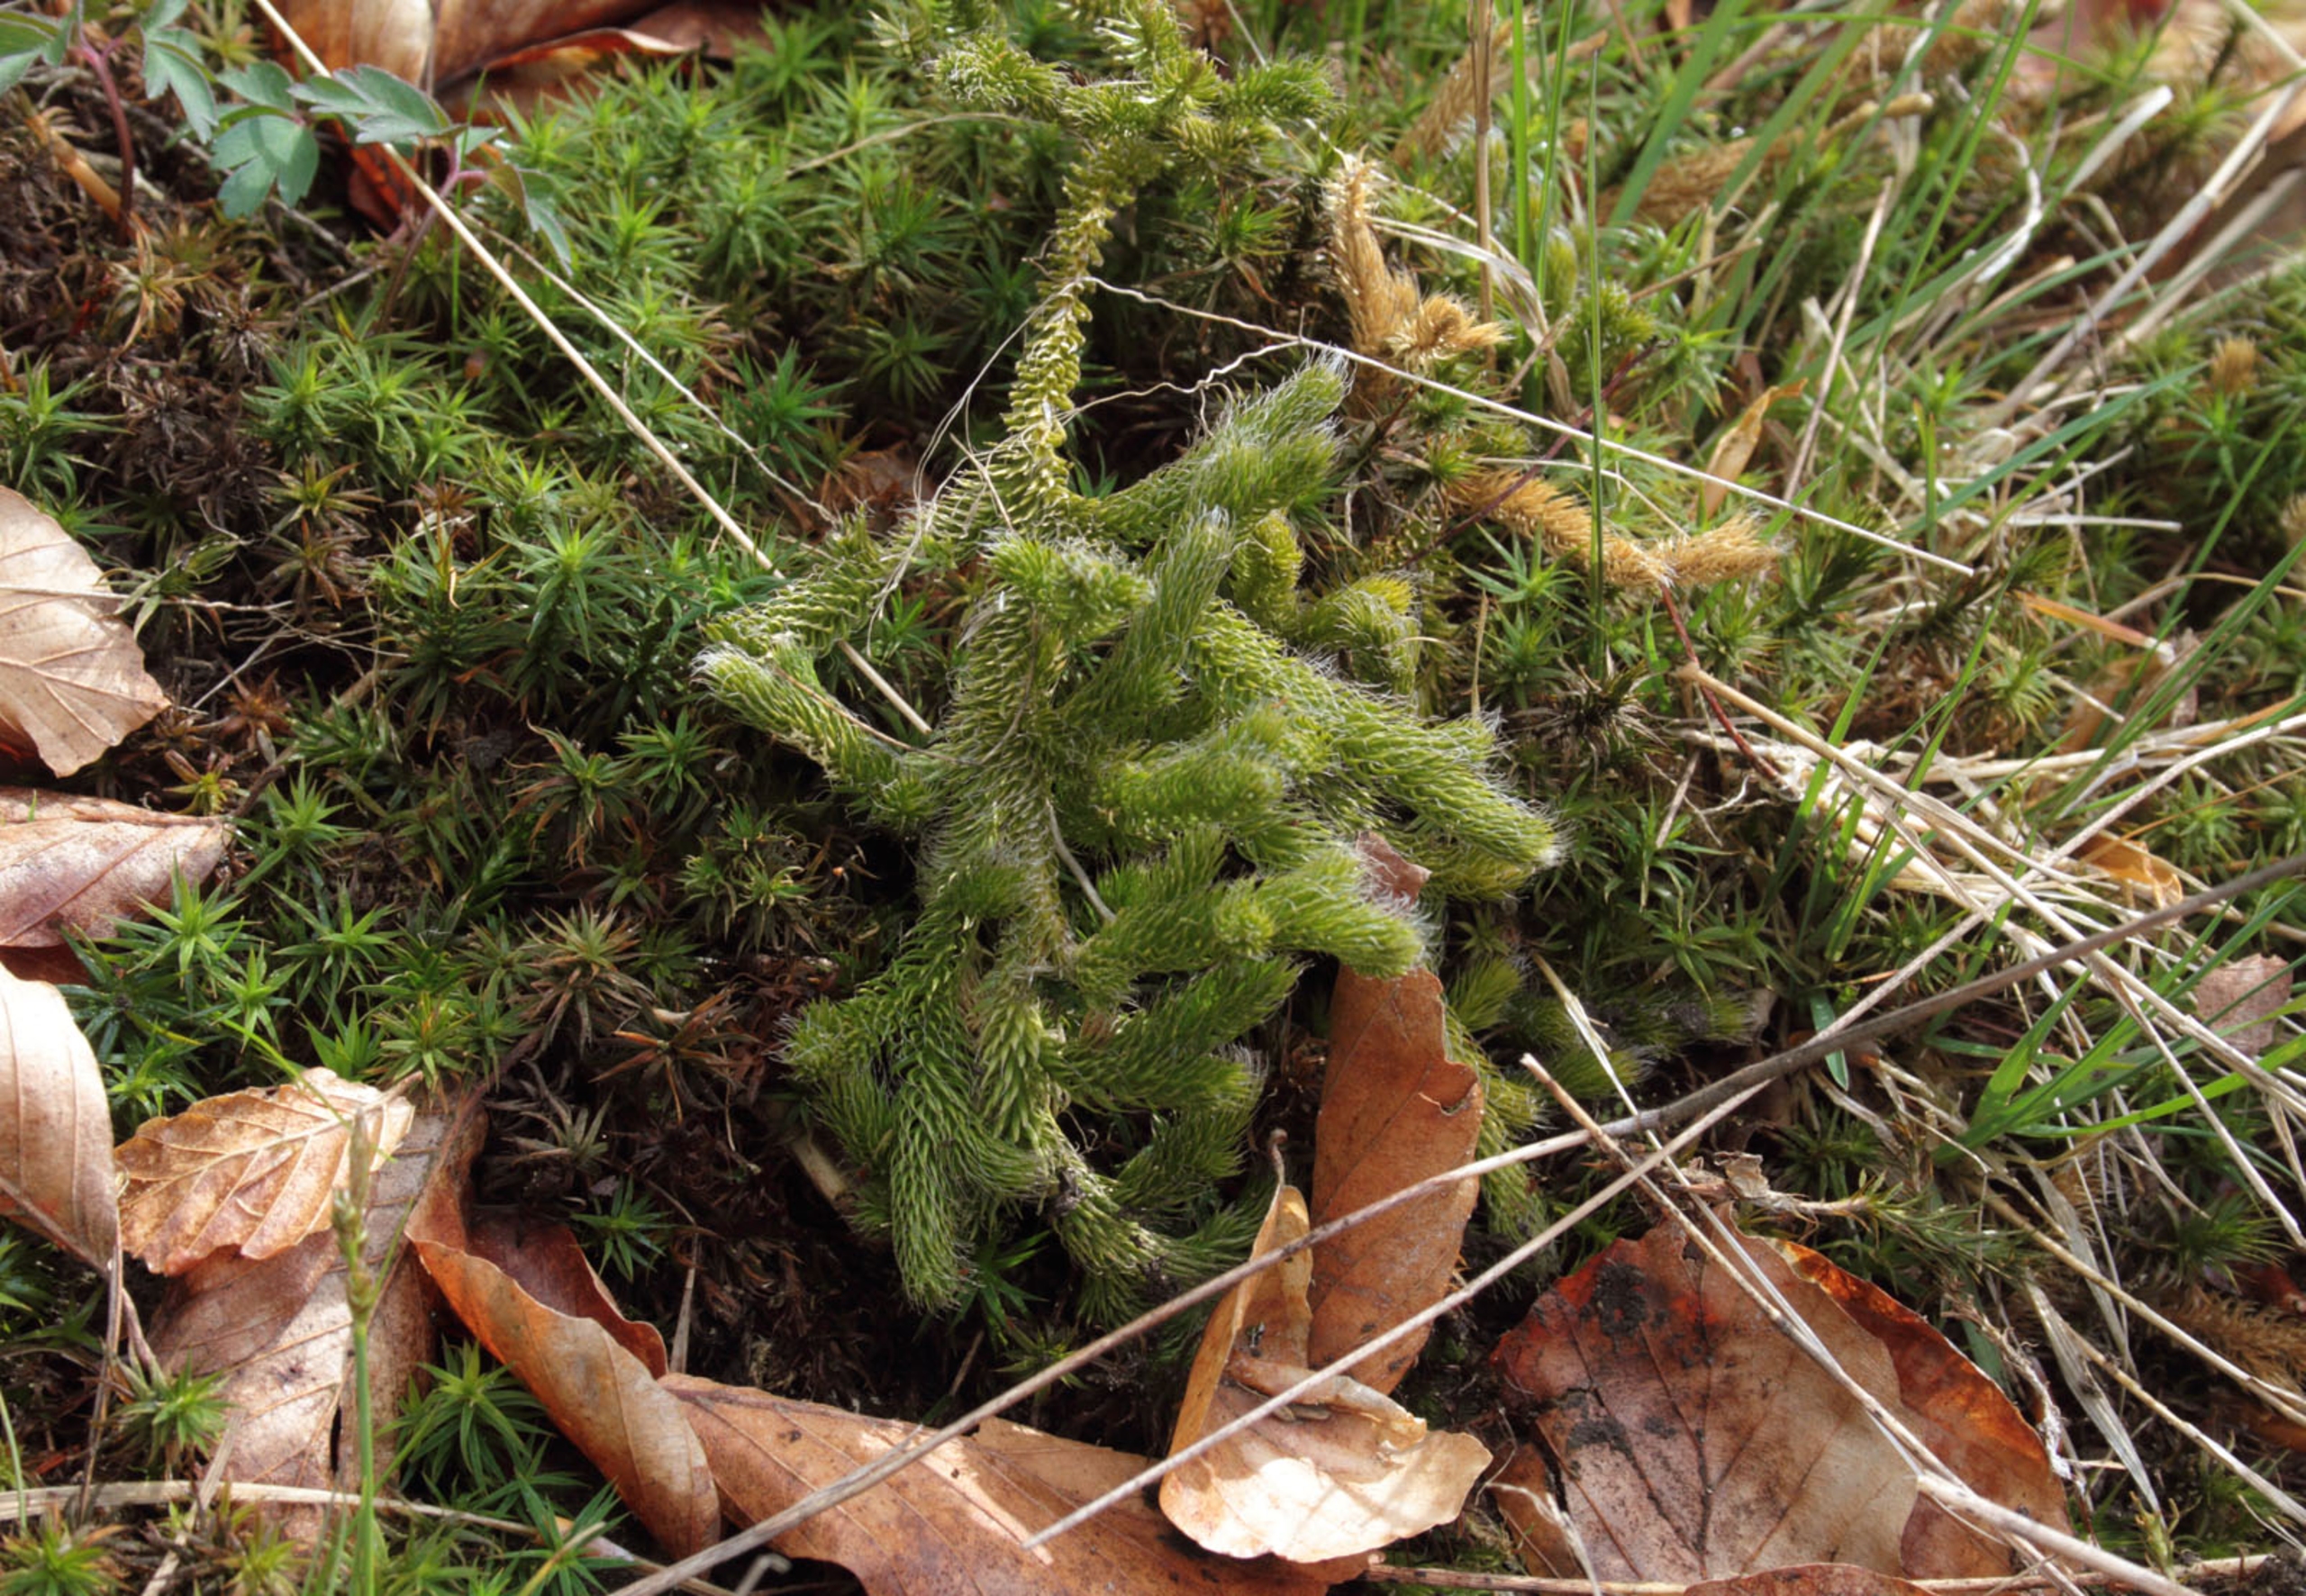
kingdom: Plantae
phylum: Tracheophyta
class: Lycopodiopsida
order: Lycopodiales
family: Lycopodiaceae
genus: Lycopodium
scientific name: Lycopodium clavatum
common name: Almindelig ulvefod
